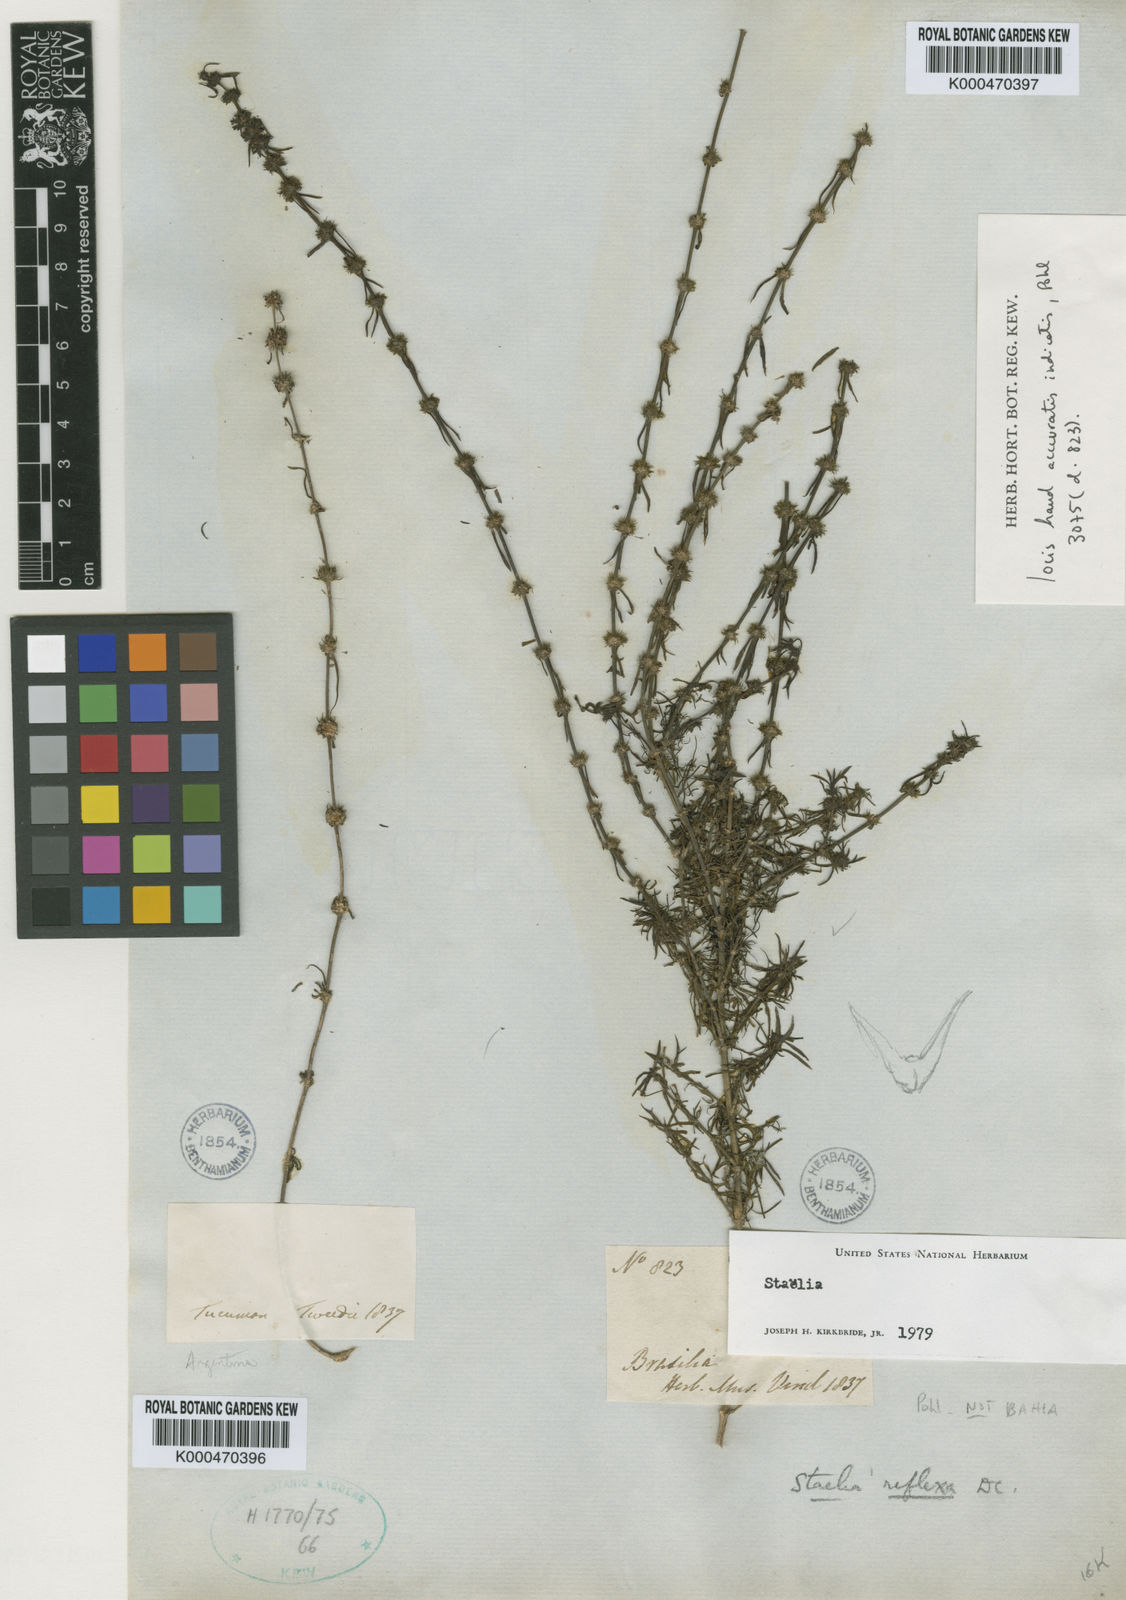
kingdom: Plantae
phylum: Tracheophyta
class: Magnoliopsida
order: Gentianales
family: Rubiaceae
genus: Staelia
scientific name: Staelia reflexa
